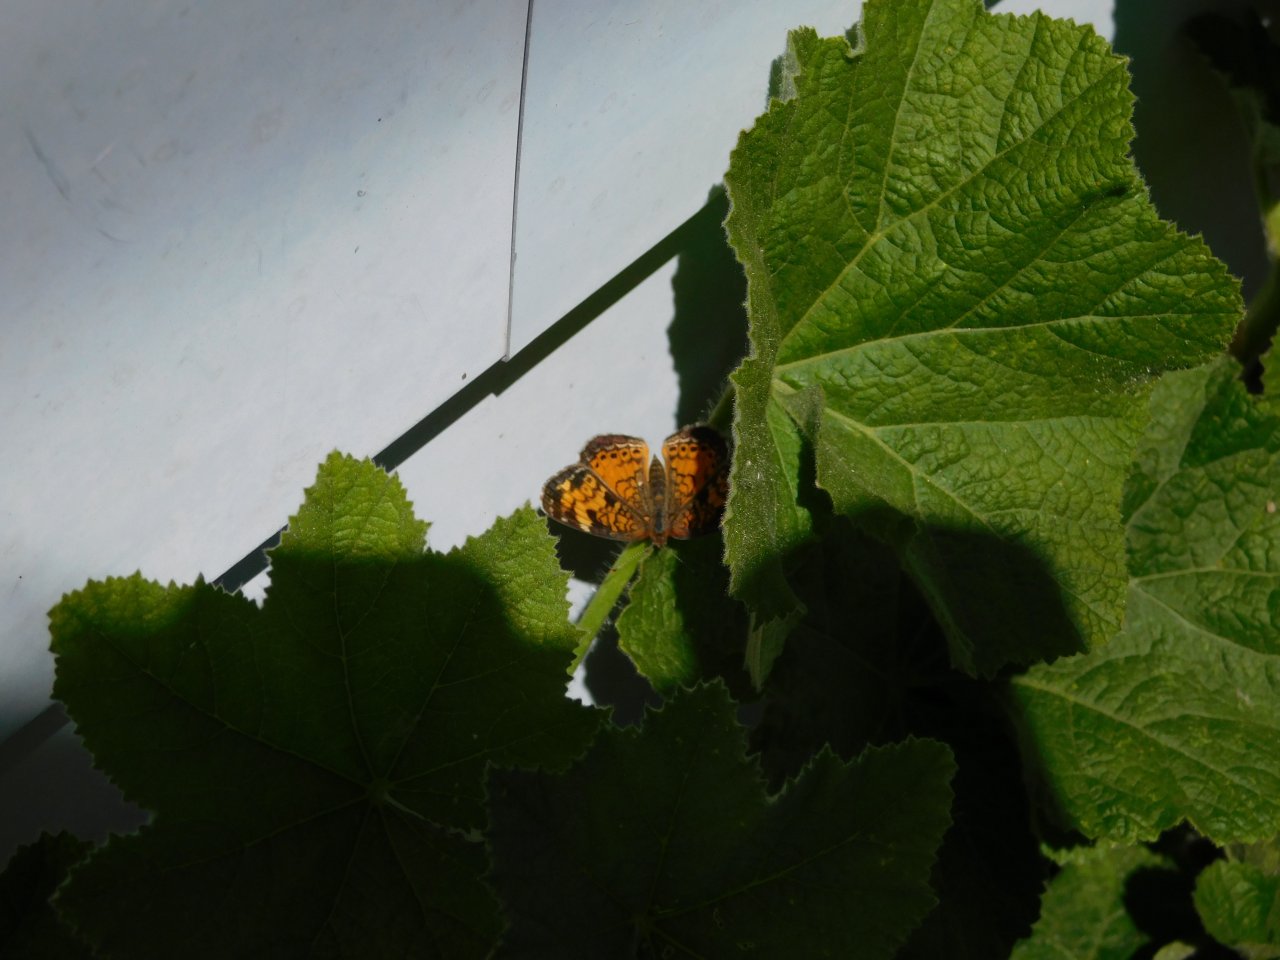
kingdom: Animalia
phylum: Arthropoda
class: Insecta
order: Lepidoptera
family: Nymphalidae
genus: Phyciodes
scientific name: Phyciodes tharos
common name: Northern Crescent
